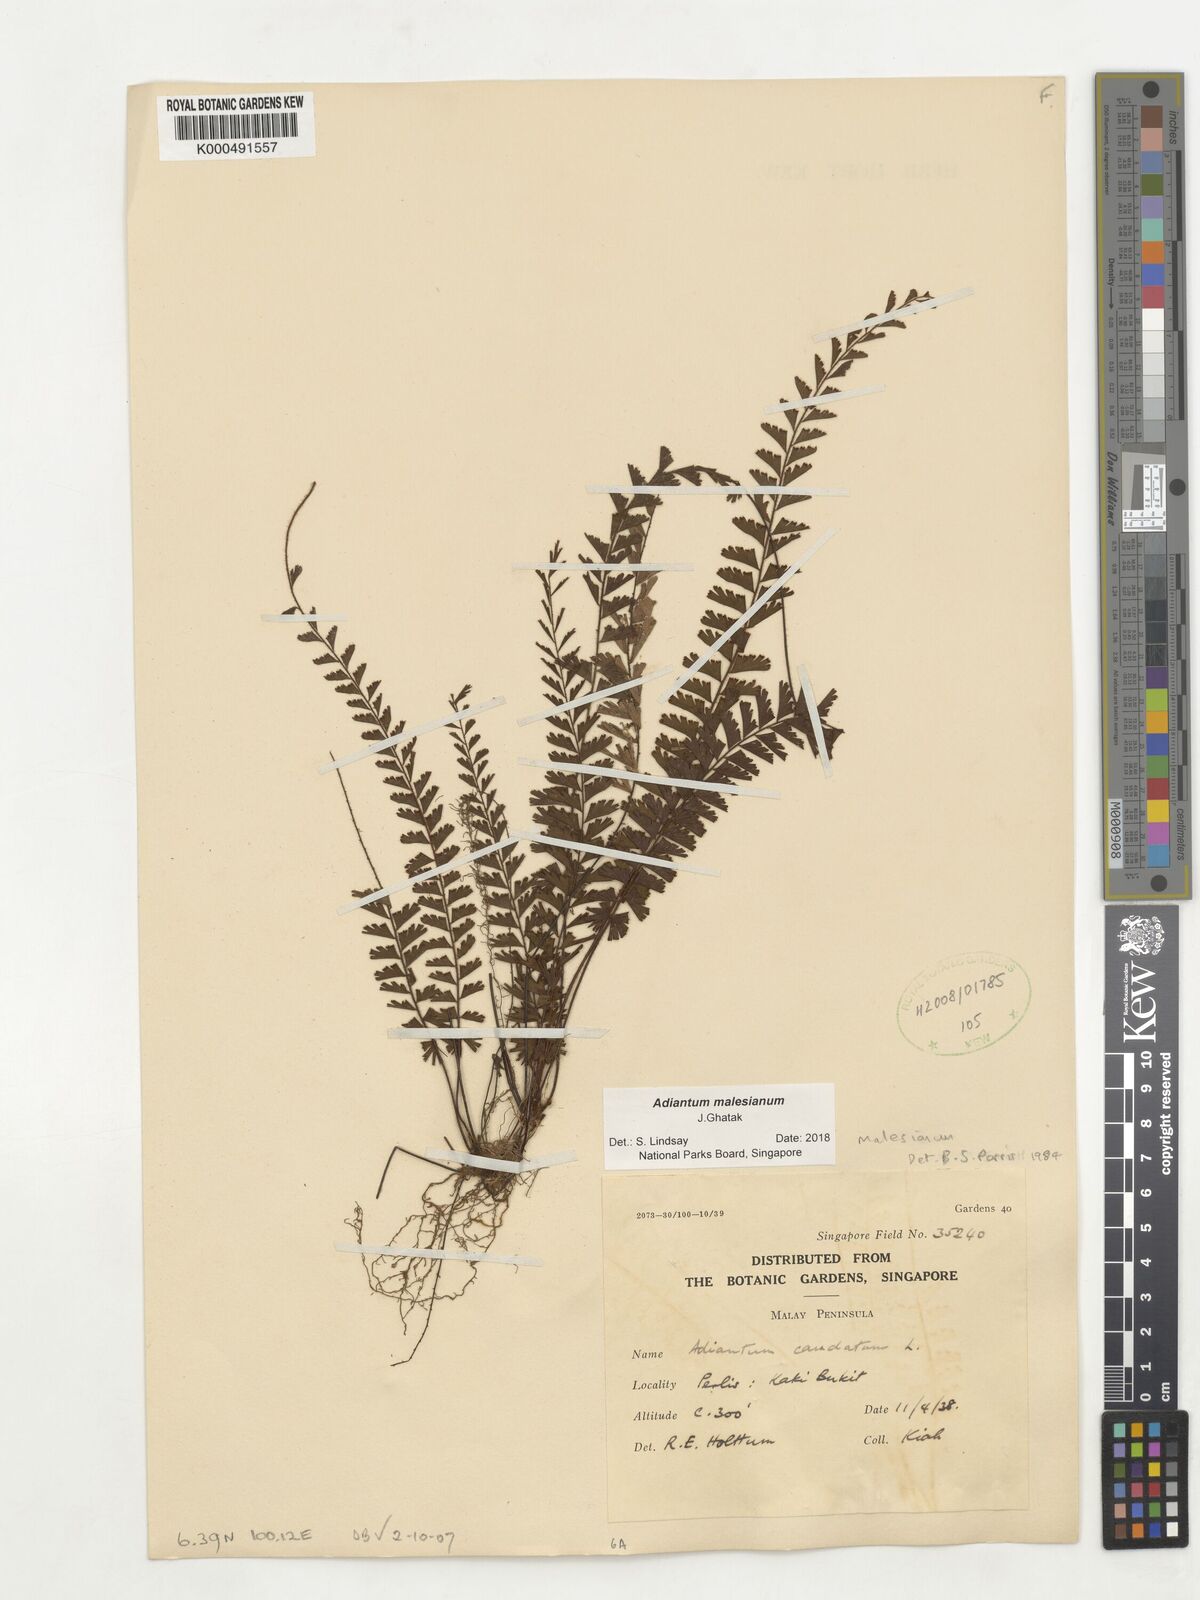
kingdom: Plantae
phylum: Tracheophyta
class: Polypodiopsida
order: Polypodiales
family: Pteridaceae
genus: Adiantum
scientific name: Adiantum ciliatum
